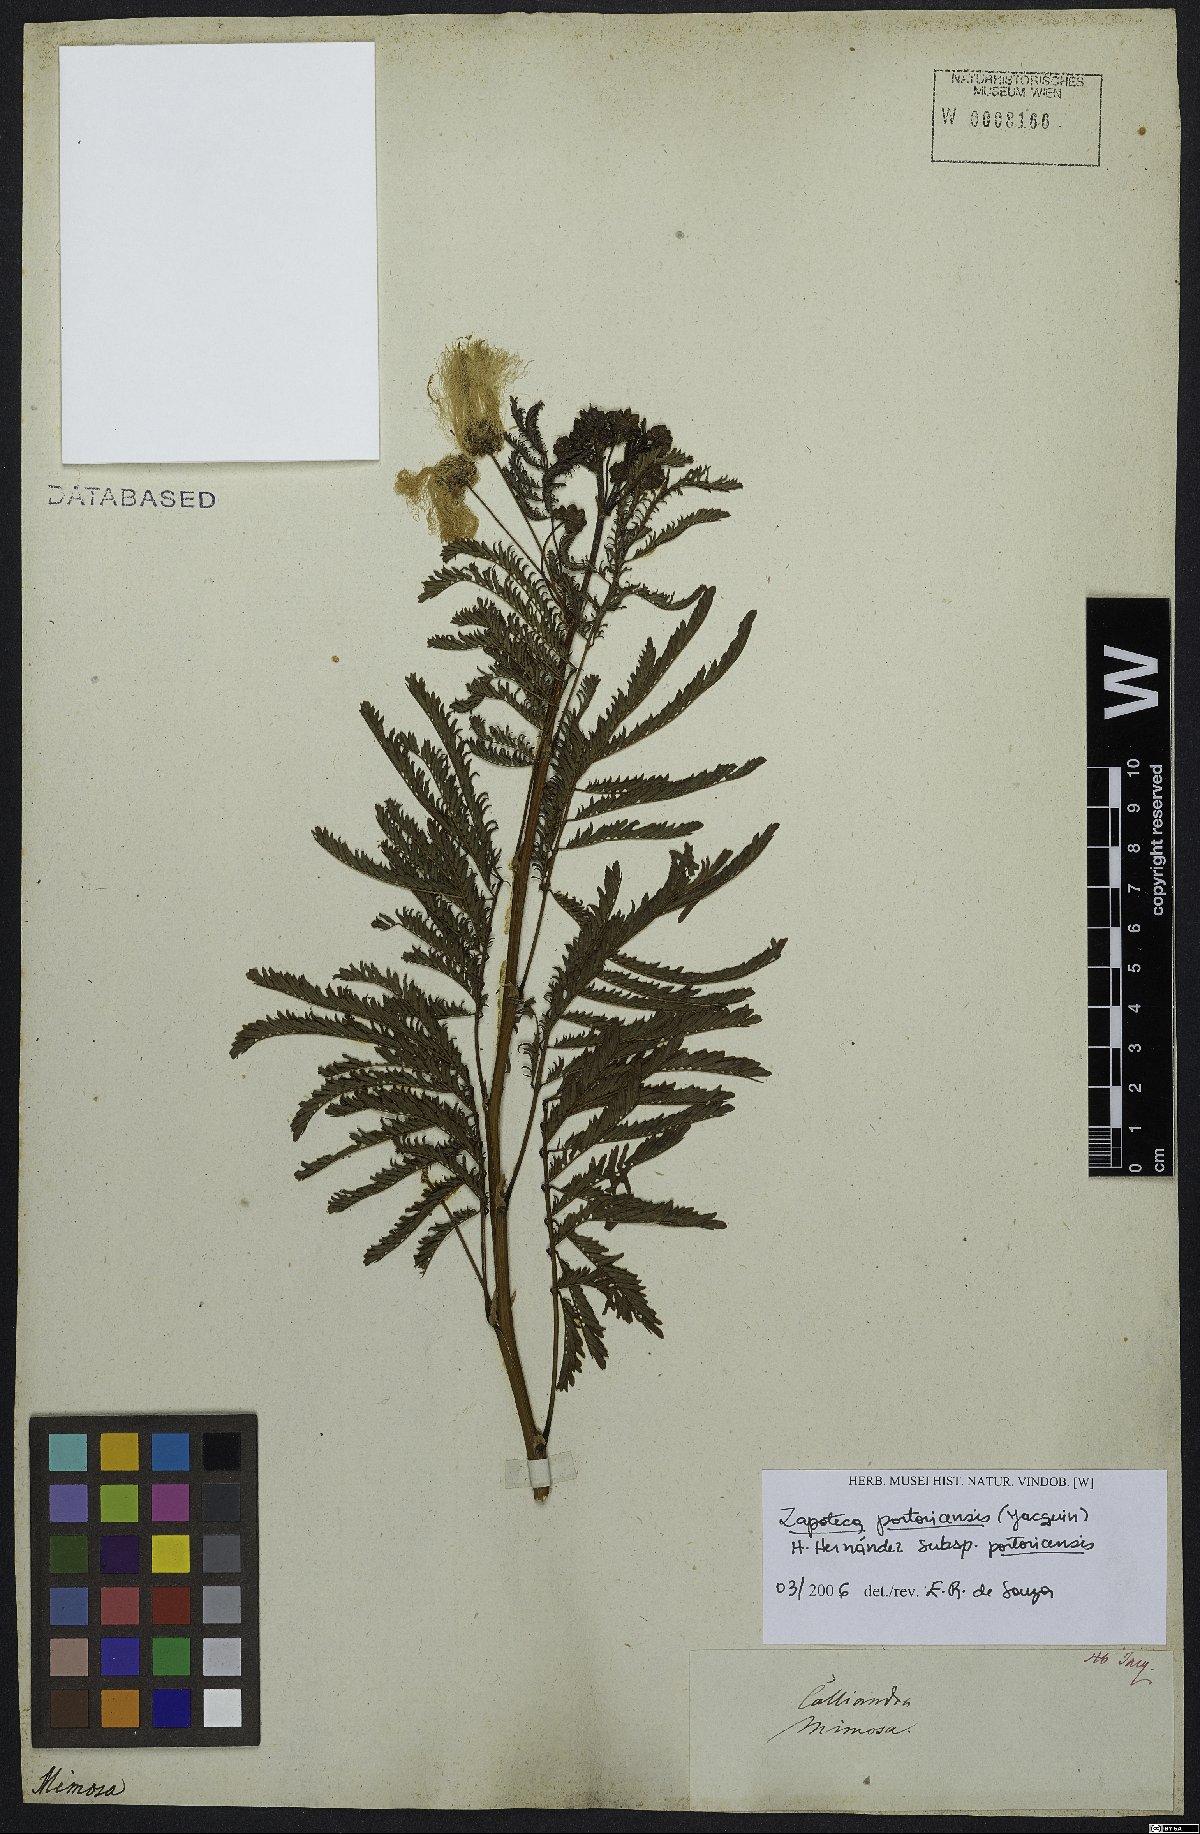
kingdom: Plantae
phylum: Tracheophyta
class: Magnoliopsida
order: Fabales
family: Fabaceae
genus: Zapoteca
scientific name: Zapoteca portoricensis
